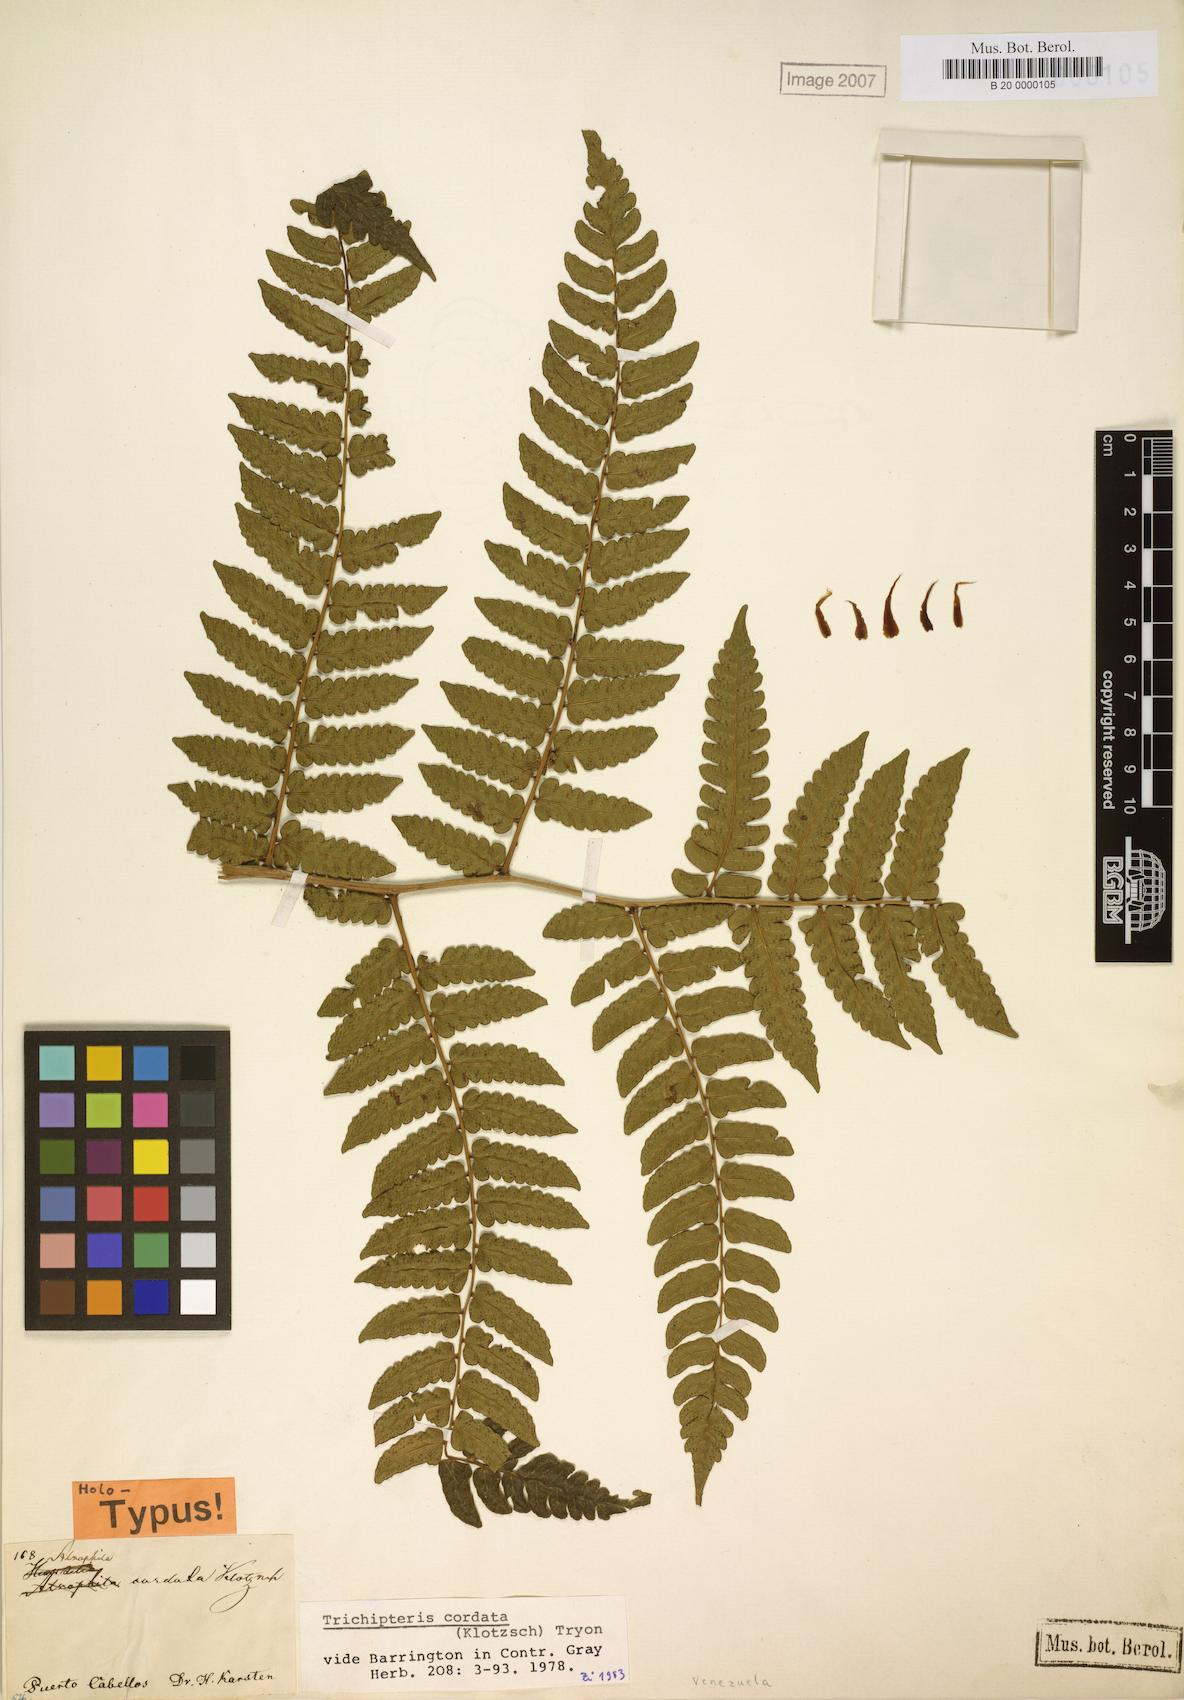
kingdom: Plantae
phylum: Tracheophyta
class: Polypodiopsida
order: Cyatheales
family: Cyatheaceae
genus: Cyathea
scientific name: Cyathea barringtonii
